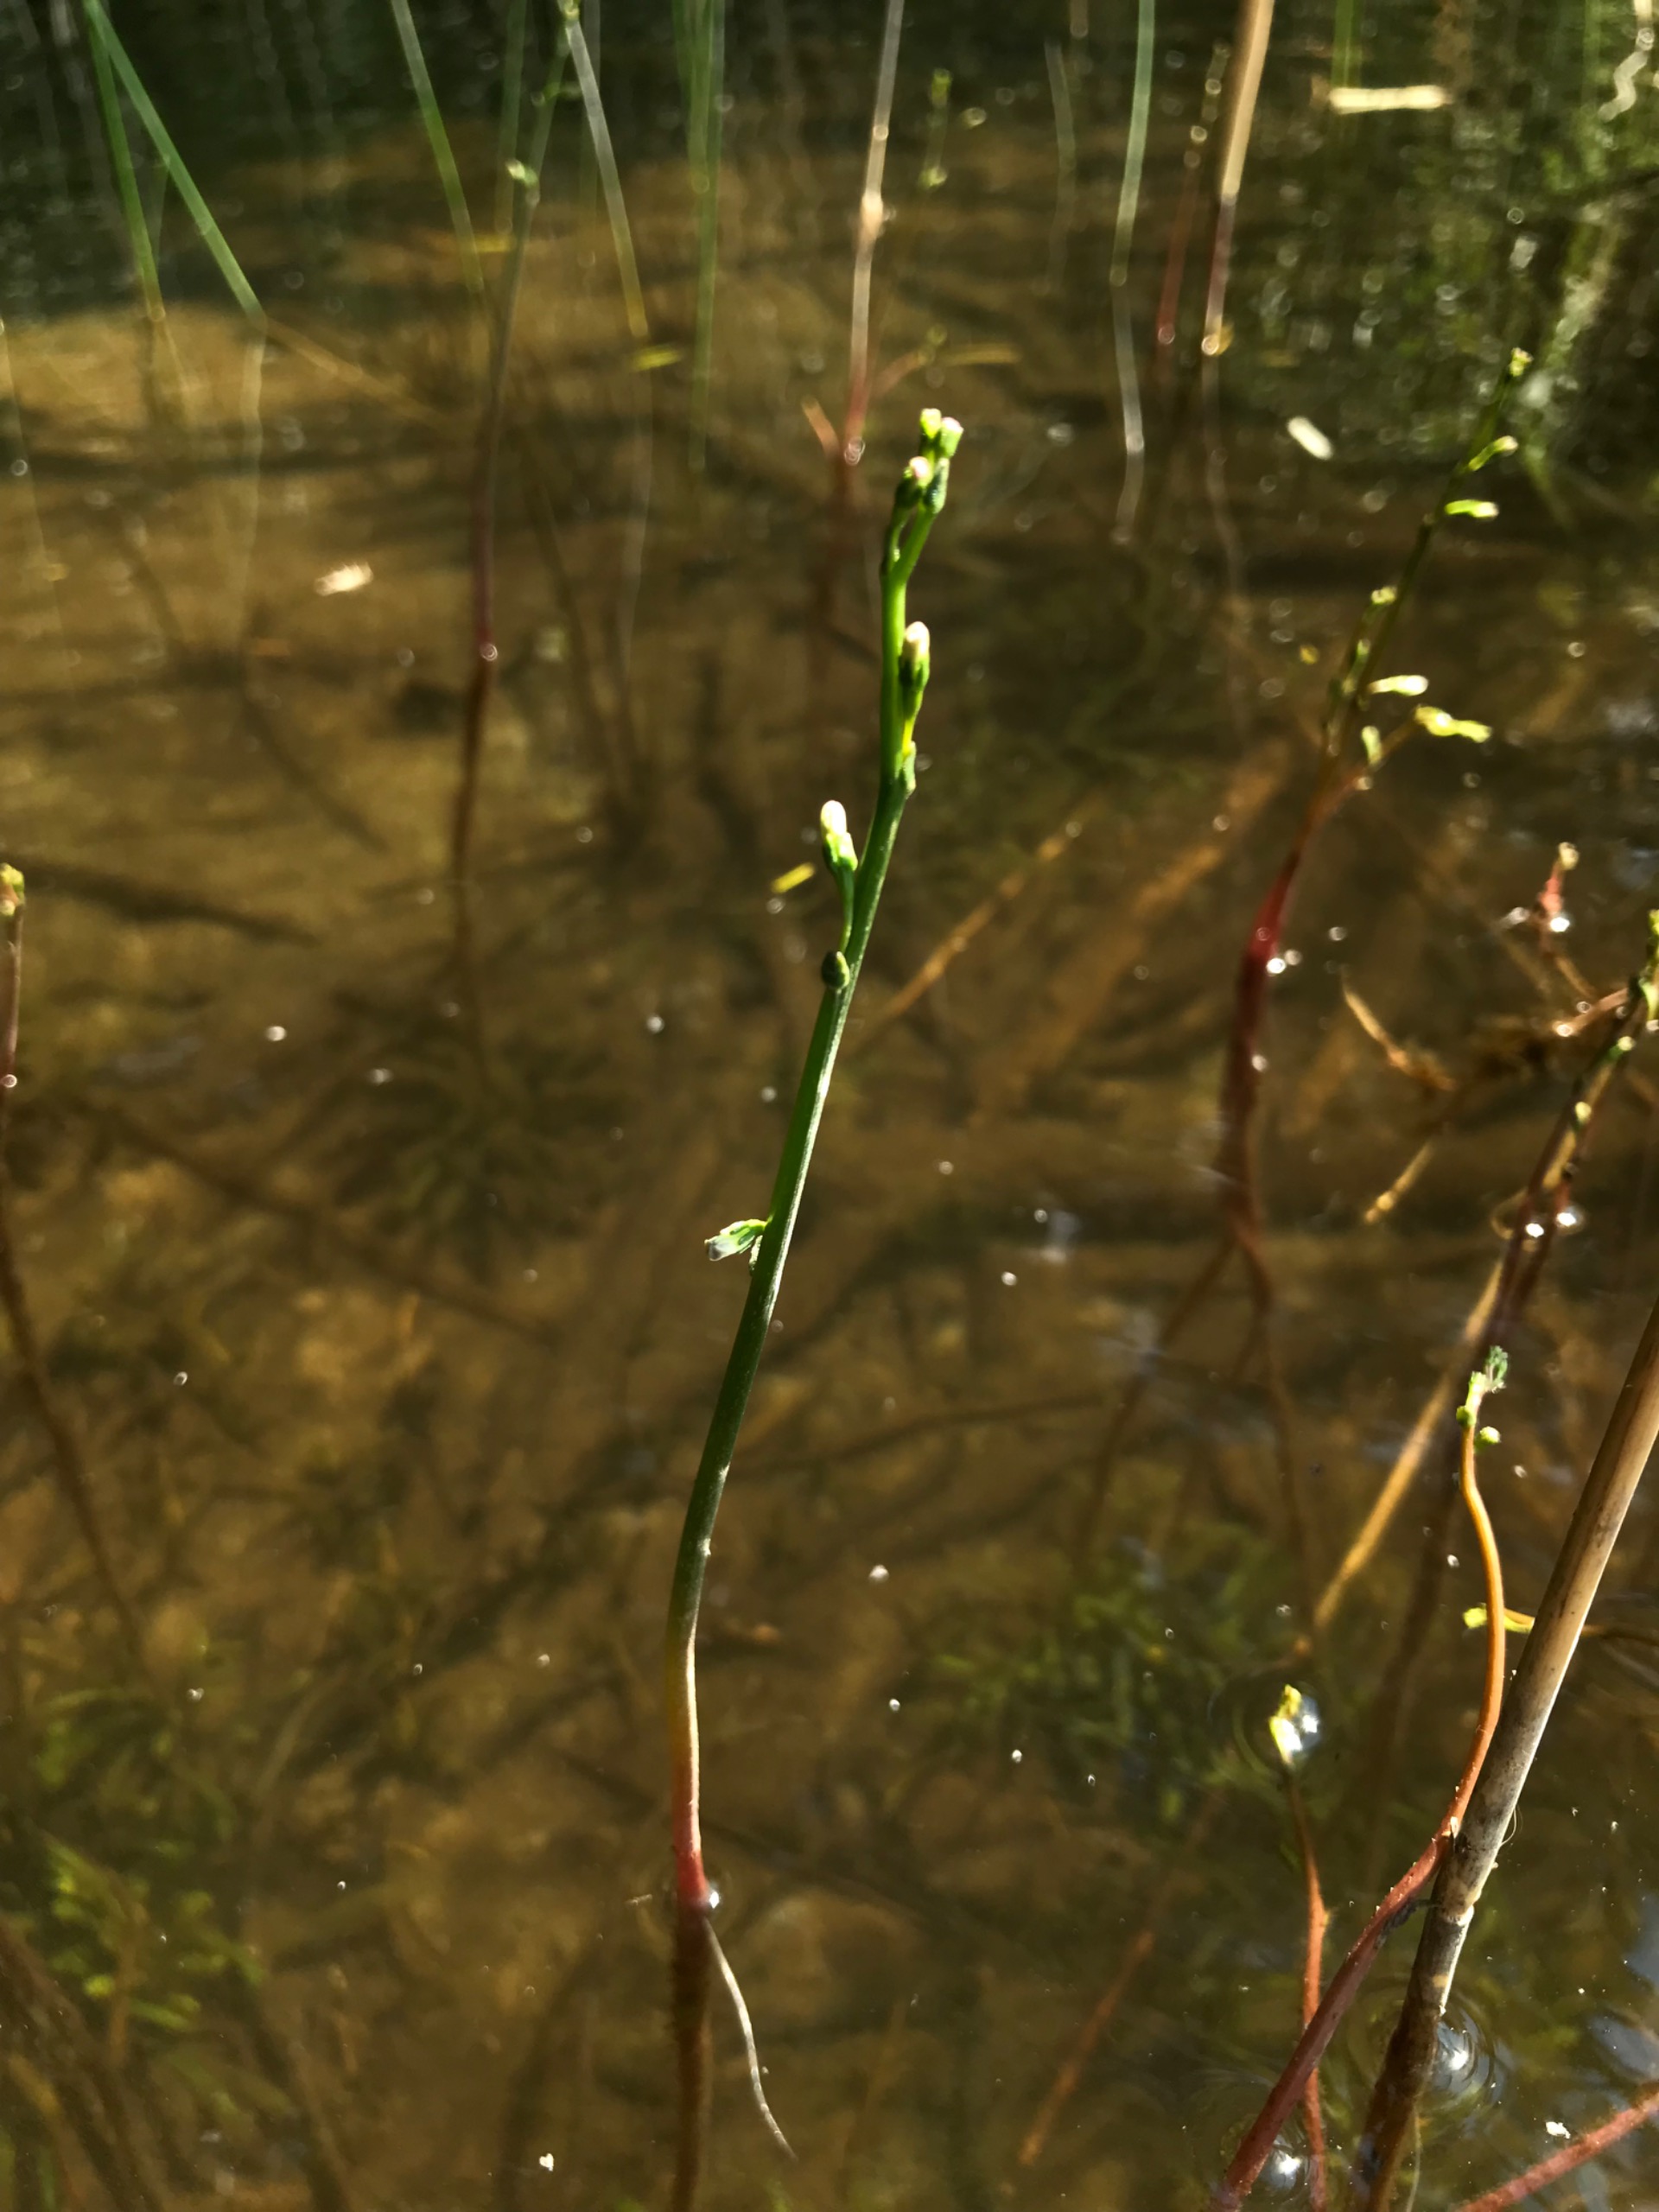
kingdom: Plantae
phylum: Tracheophyta
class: Magnoliopsida
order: Asterales
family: Campanulaceae
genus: Lobelia
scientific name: Lobelia dortmanna
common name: Tvepibet lobelie
